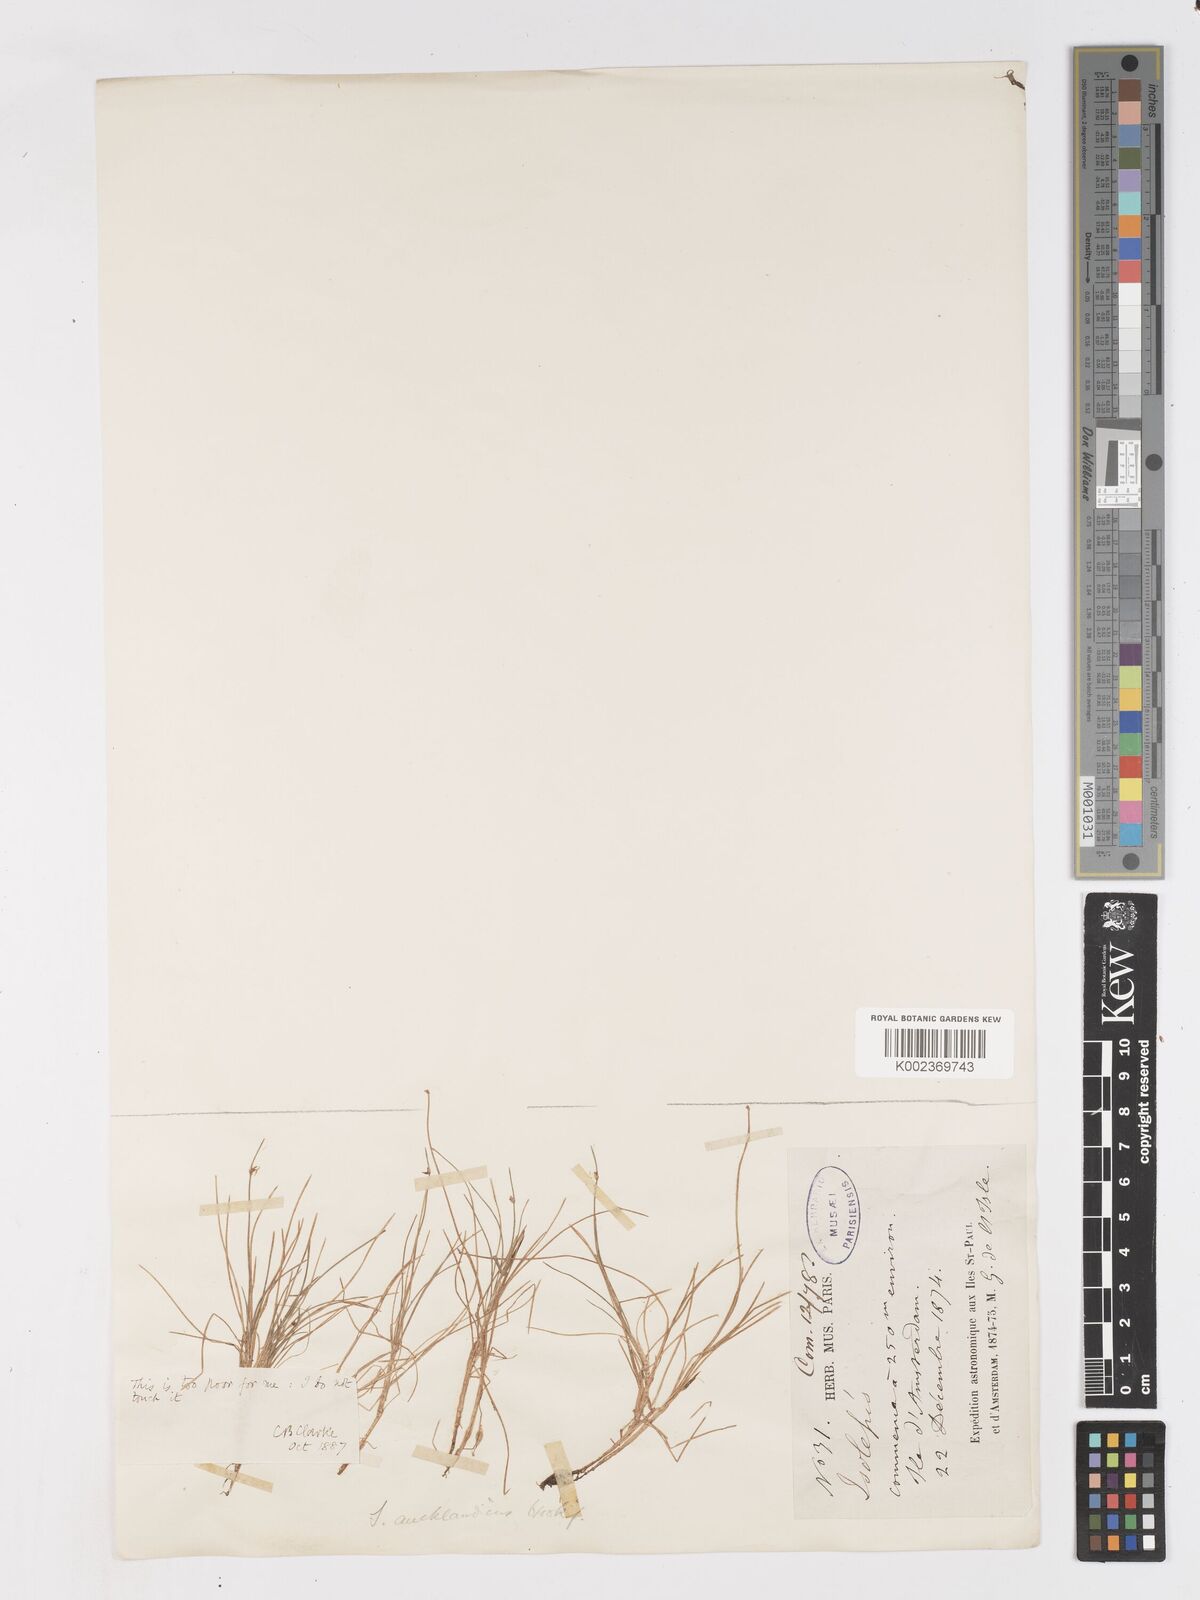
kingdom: Plantae
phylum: Tracheophyta
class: Liliopsida
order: Poales
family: Cyperaceae
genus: Isolepis
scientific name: Isolepis aucklandica
